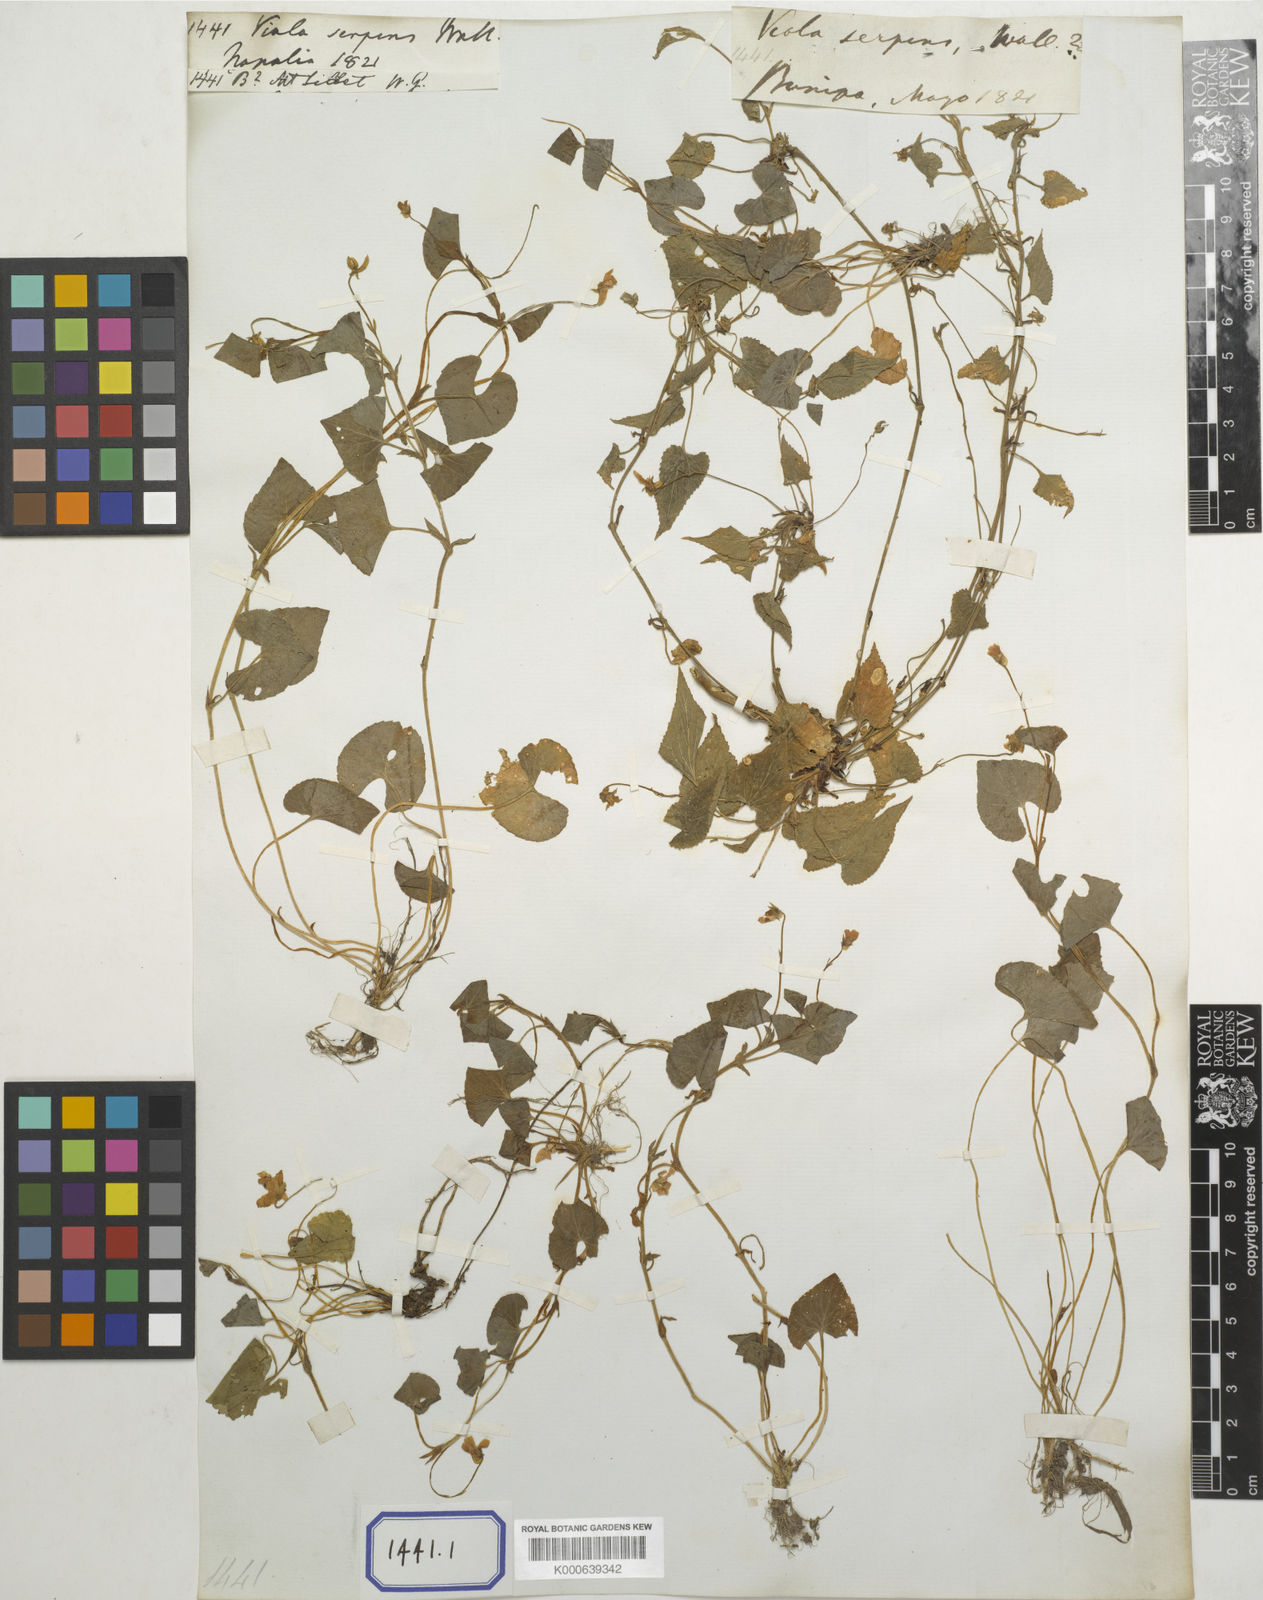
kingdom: Plantae
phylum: Tracheophyta
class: Magnoliopsida
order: Malpighiales
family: Violaceae
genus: Viola
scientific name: Viola
